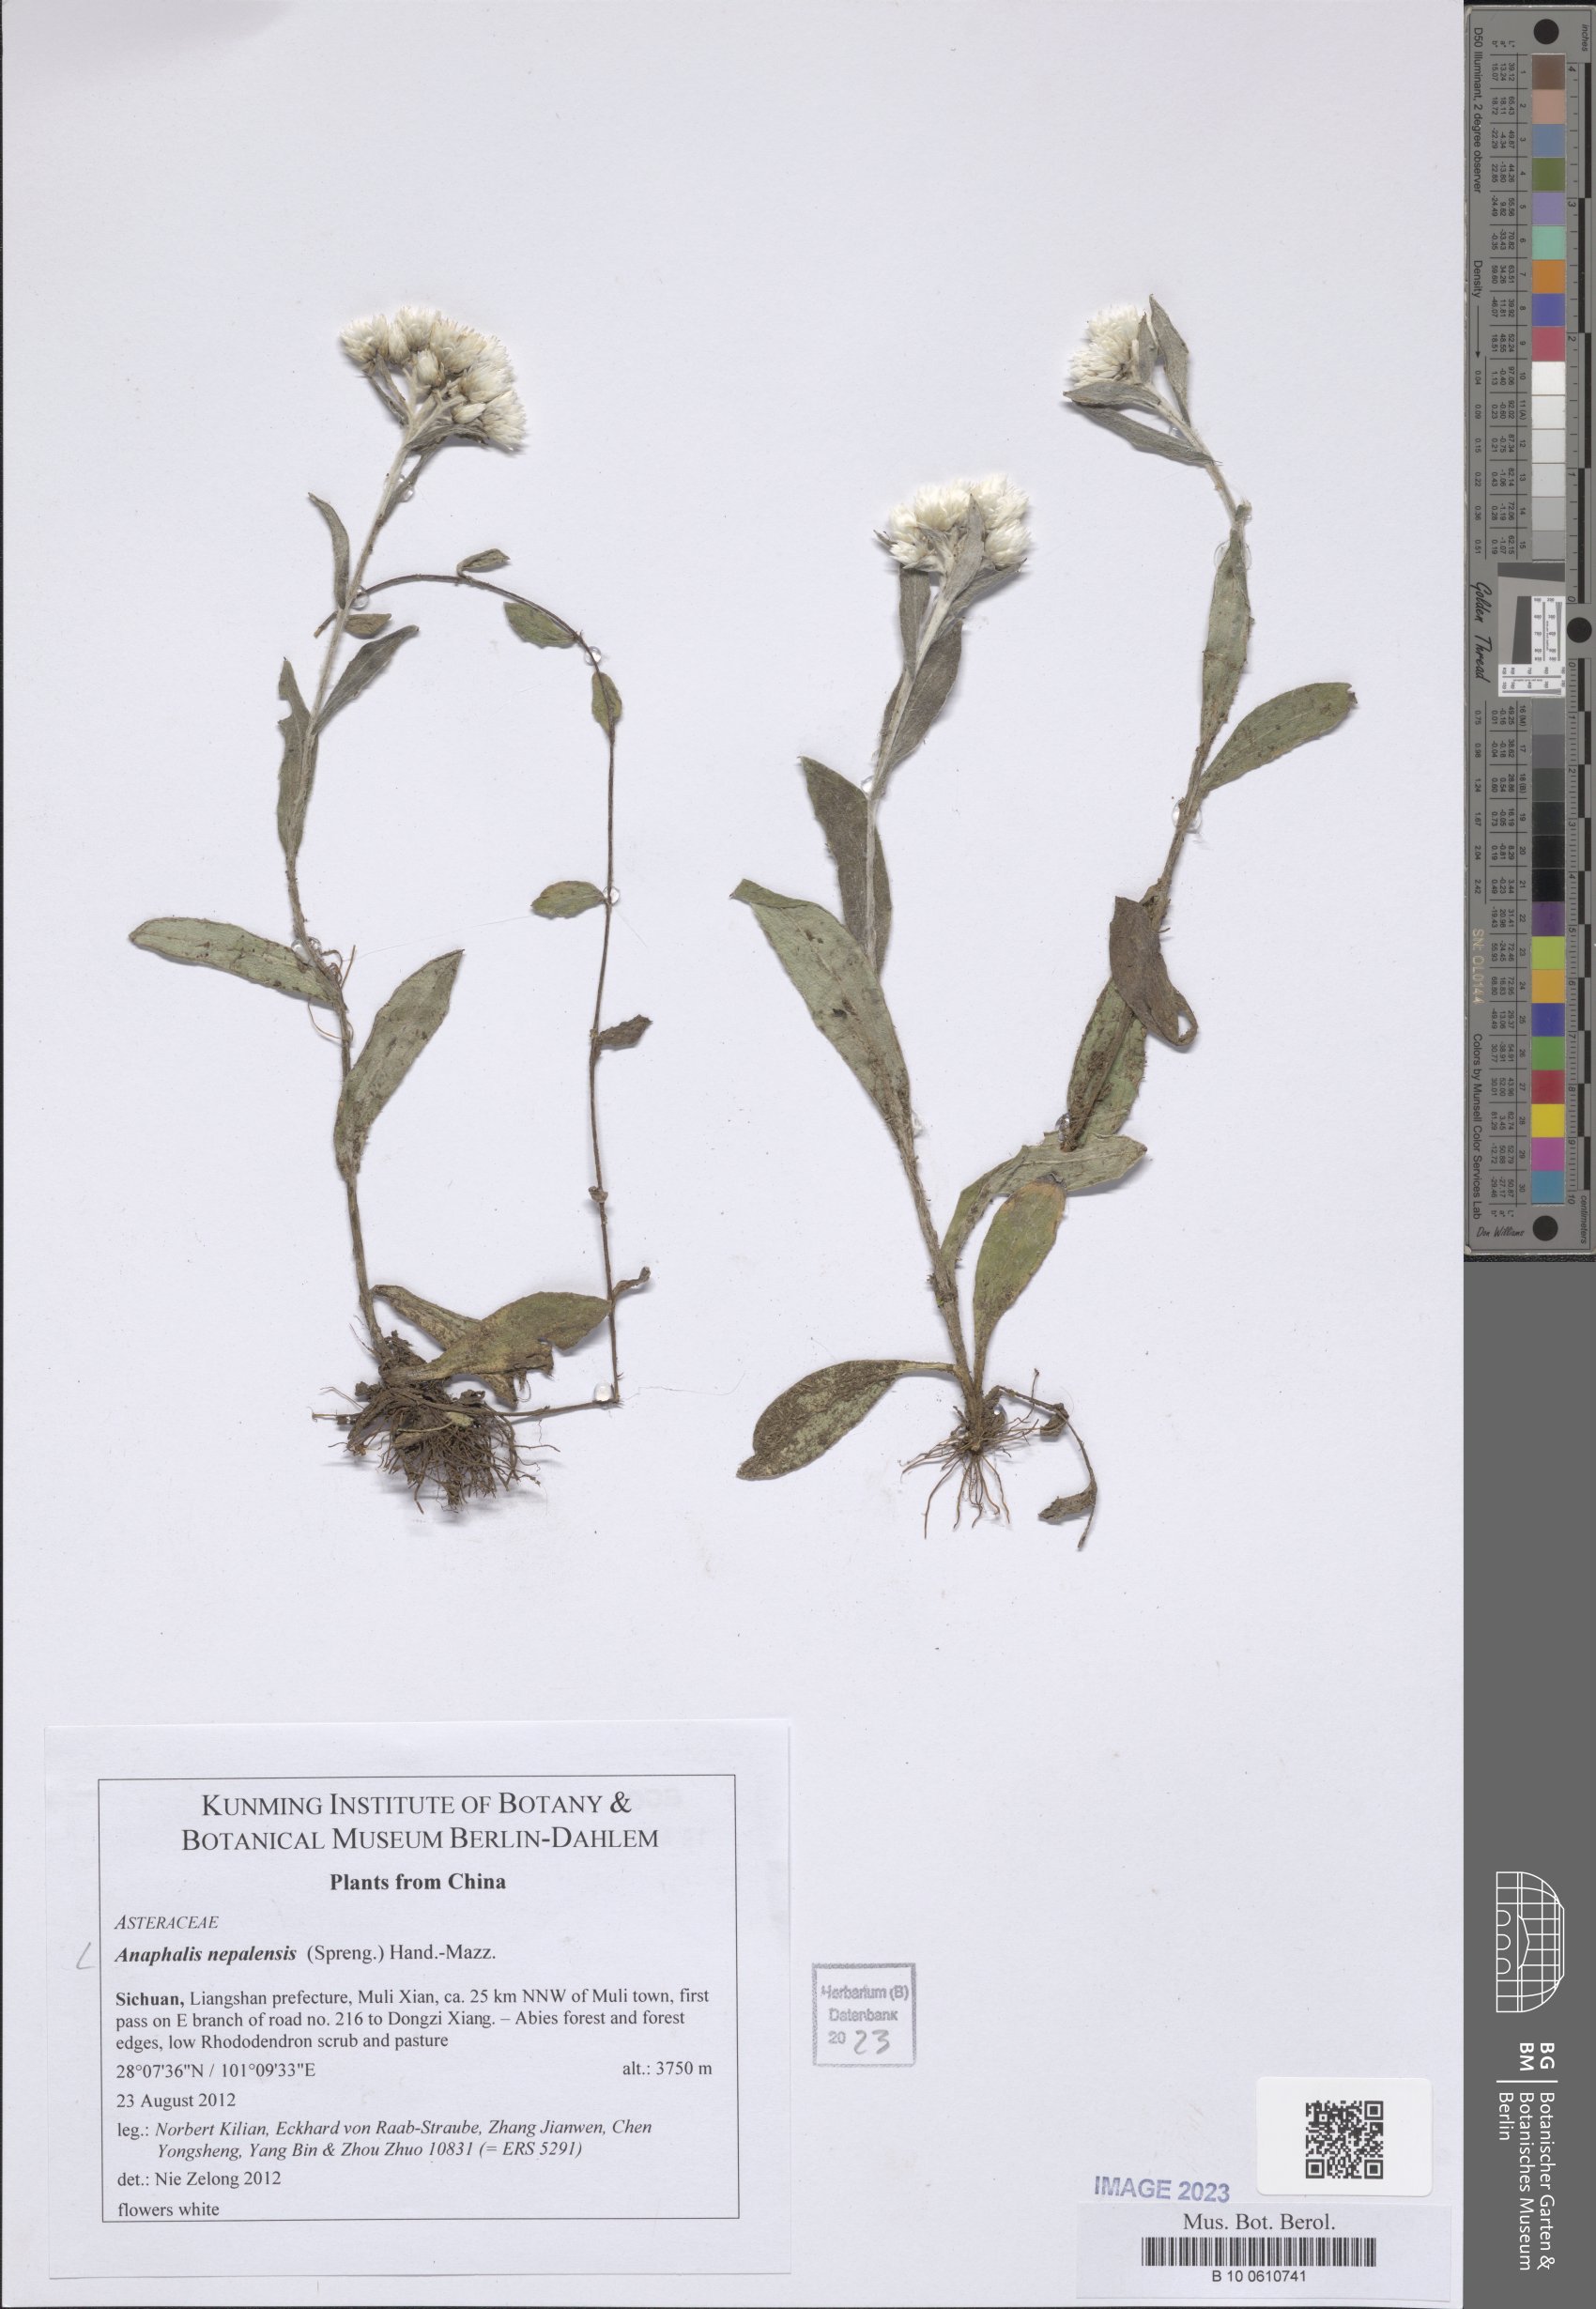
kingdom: Plantae
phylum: Tracheophyta
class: Magnoliopsida
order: Asterales
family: Asteraceae
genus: Anaphalis
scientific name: Anaphalis nepalensis
